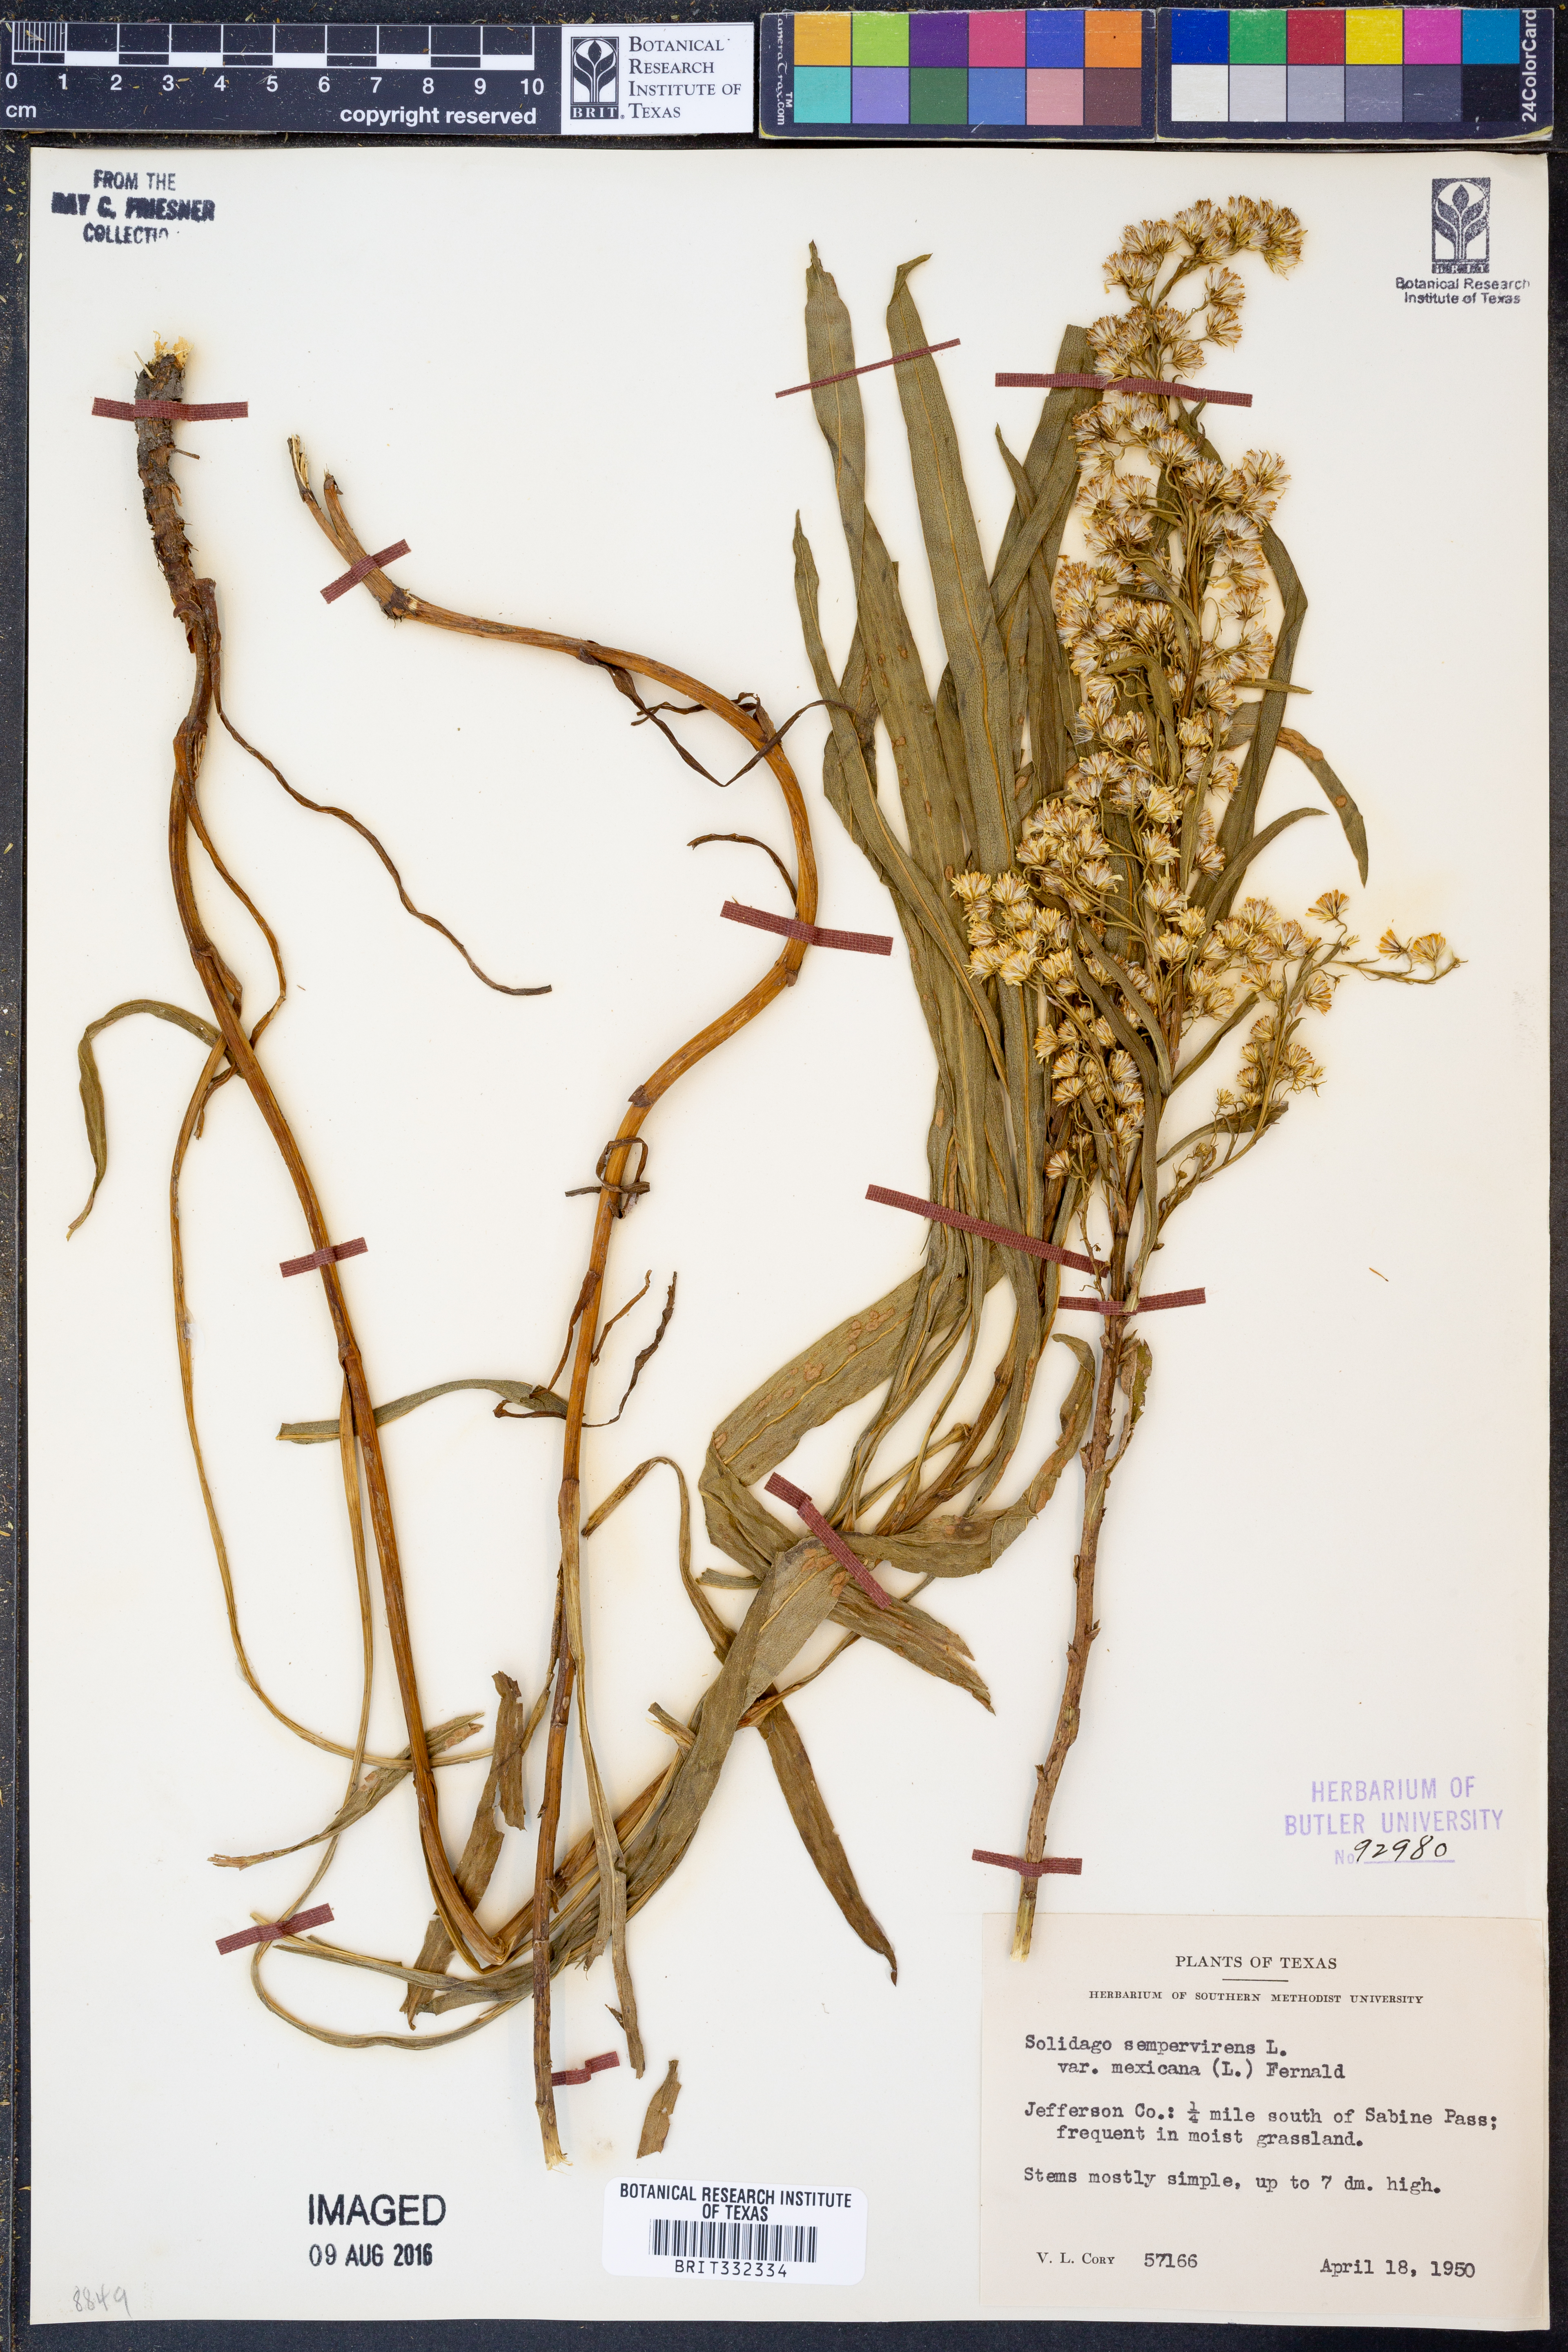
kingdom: Plantae
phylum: Tracheophyta
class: Magnoliopsida
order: Asterales
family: Asteraceae
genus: Solidago
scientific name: Solidago mexicana
